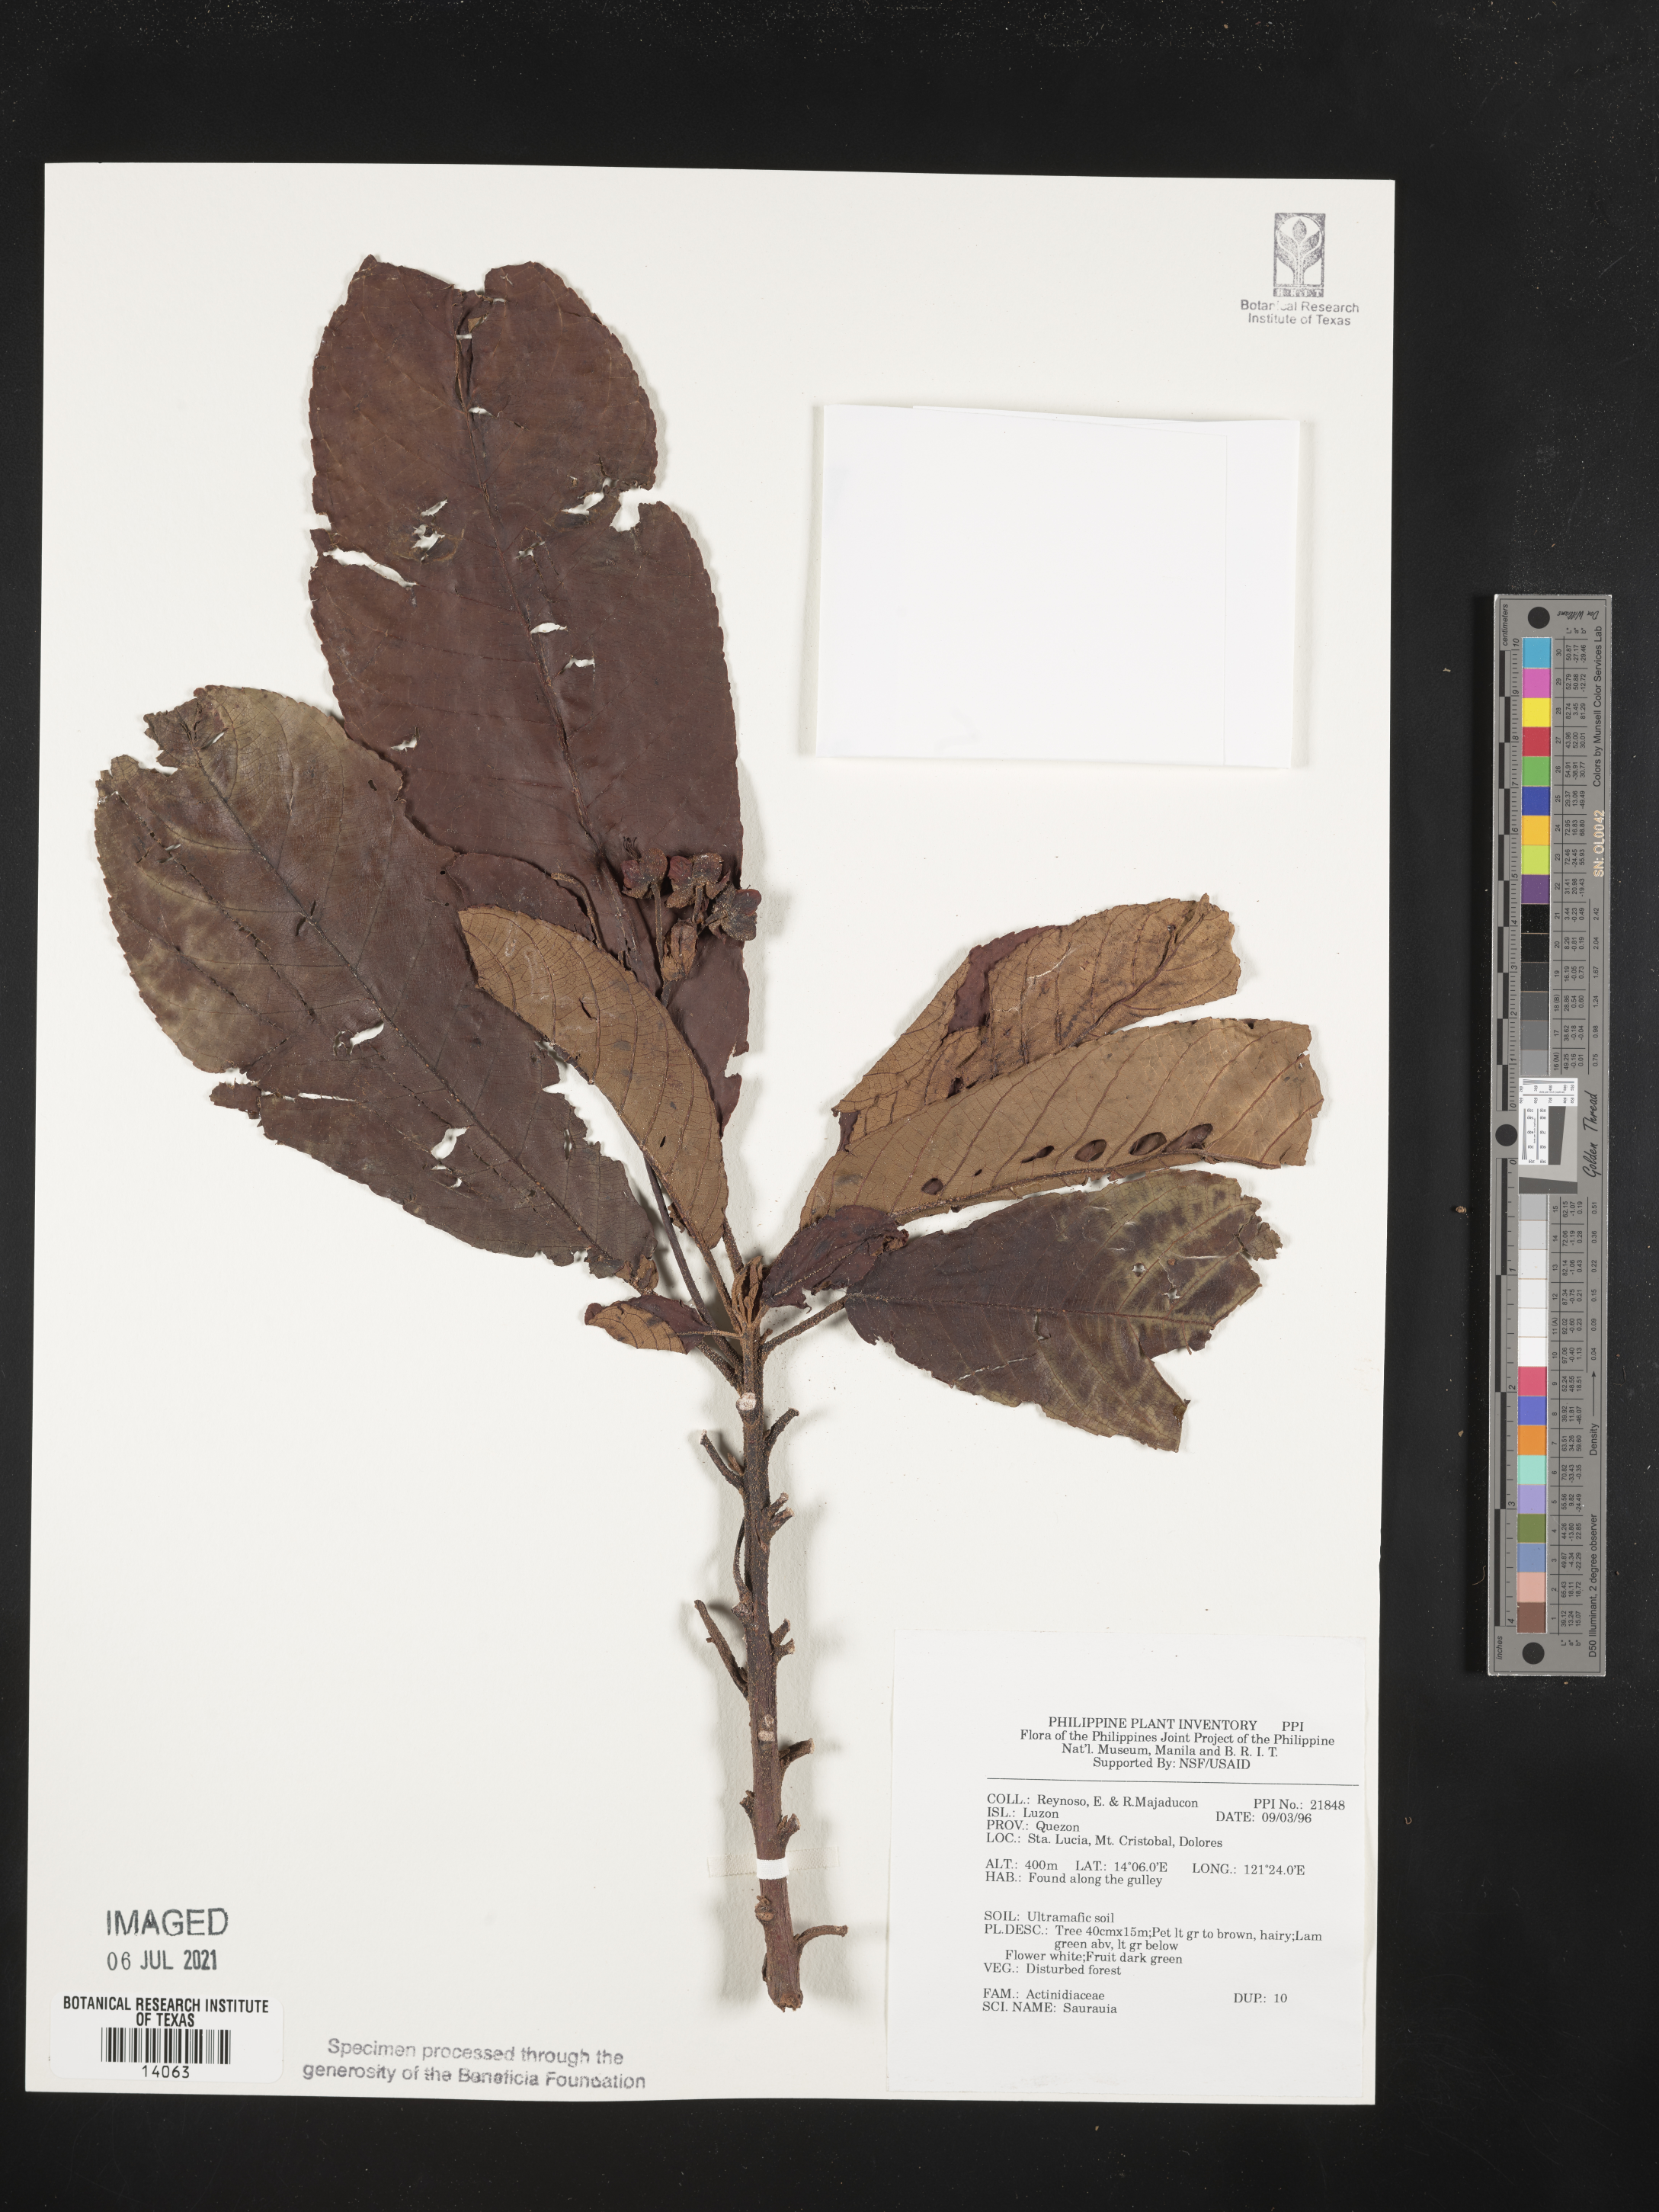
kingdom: Plantae
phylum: Tracheophyta
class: Magnoliopsida
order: Ericales
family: Actinidiaceae
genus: Saurauia
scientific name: Saurauia
